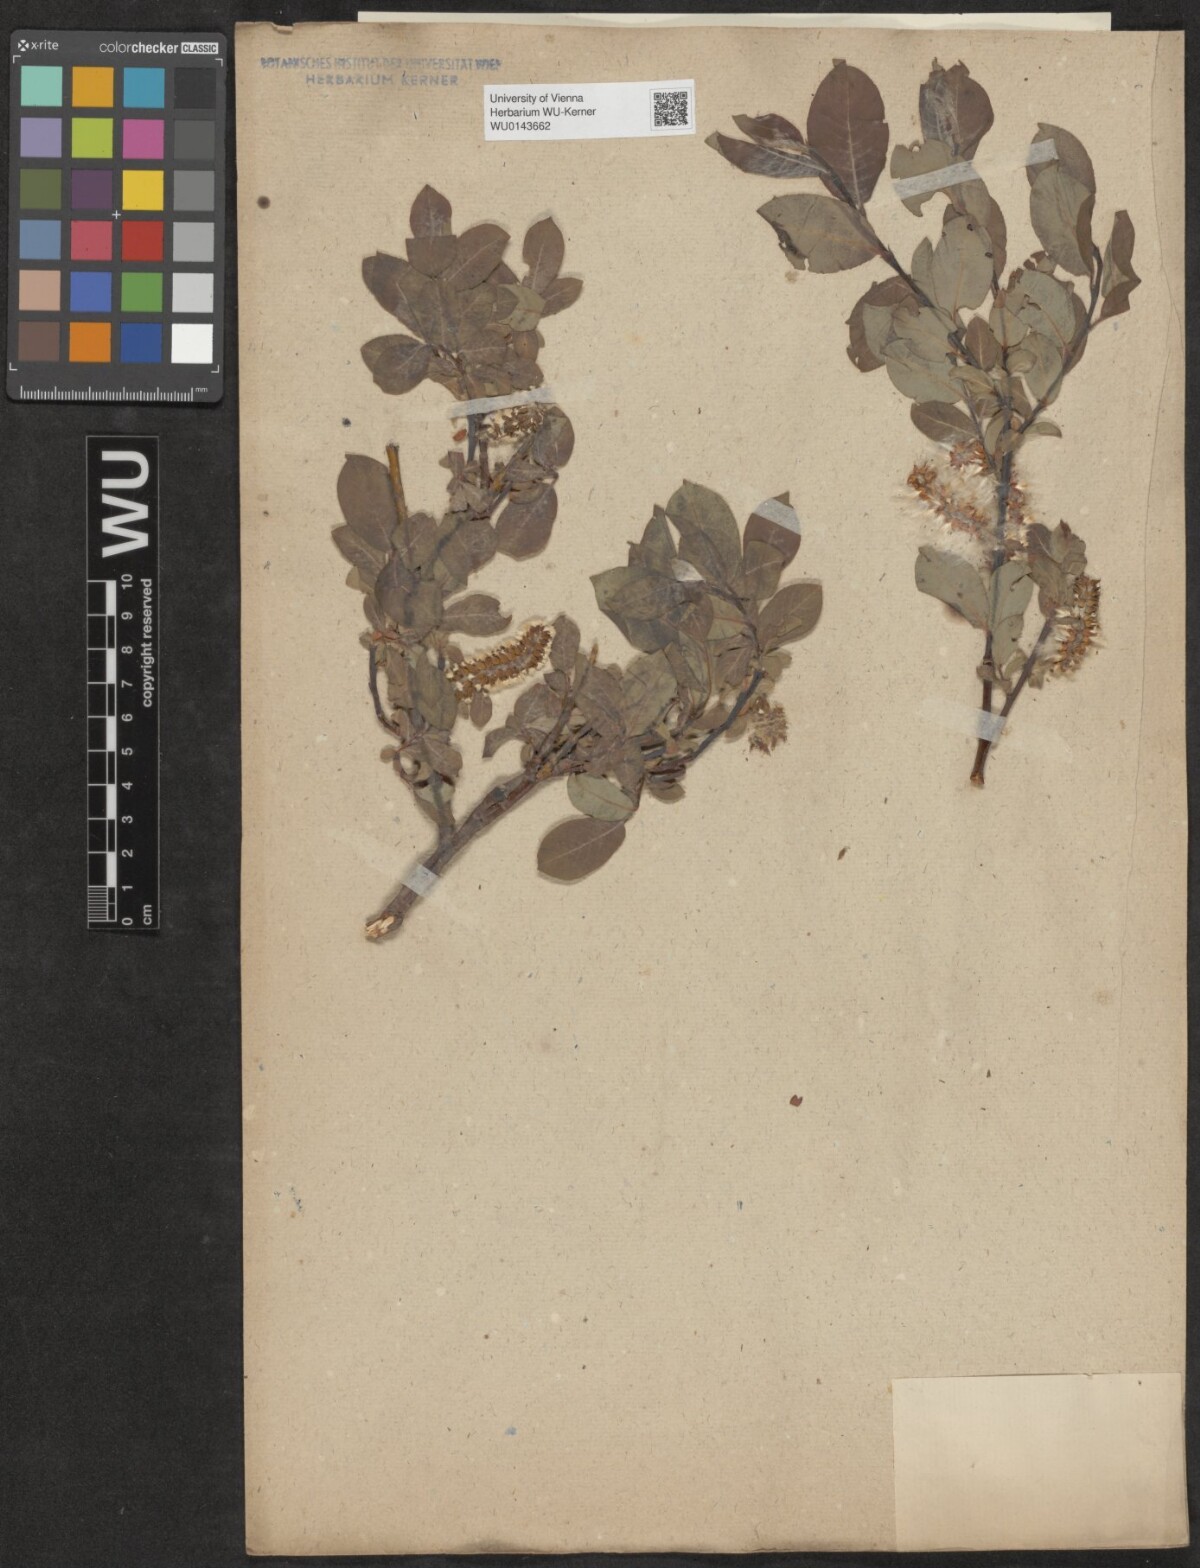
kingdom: Plantae
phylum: Tracheophyta
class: Magnoliopsida
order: Malpighiales
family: Salicaceae
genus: Salix
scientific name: Salix
